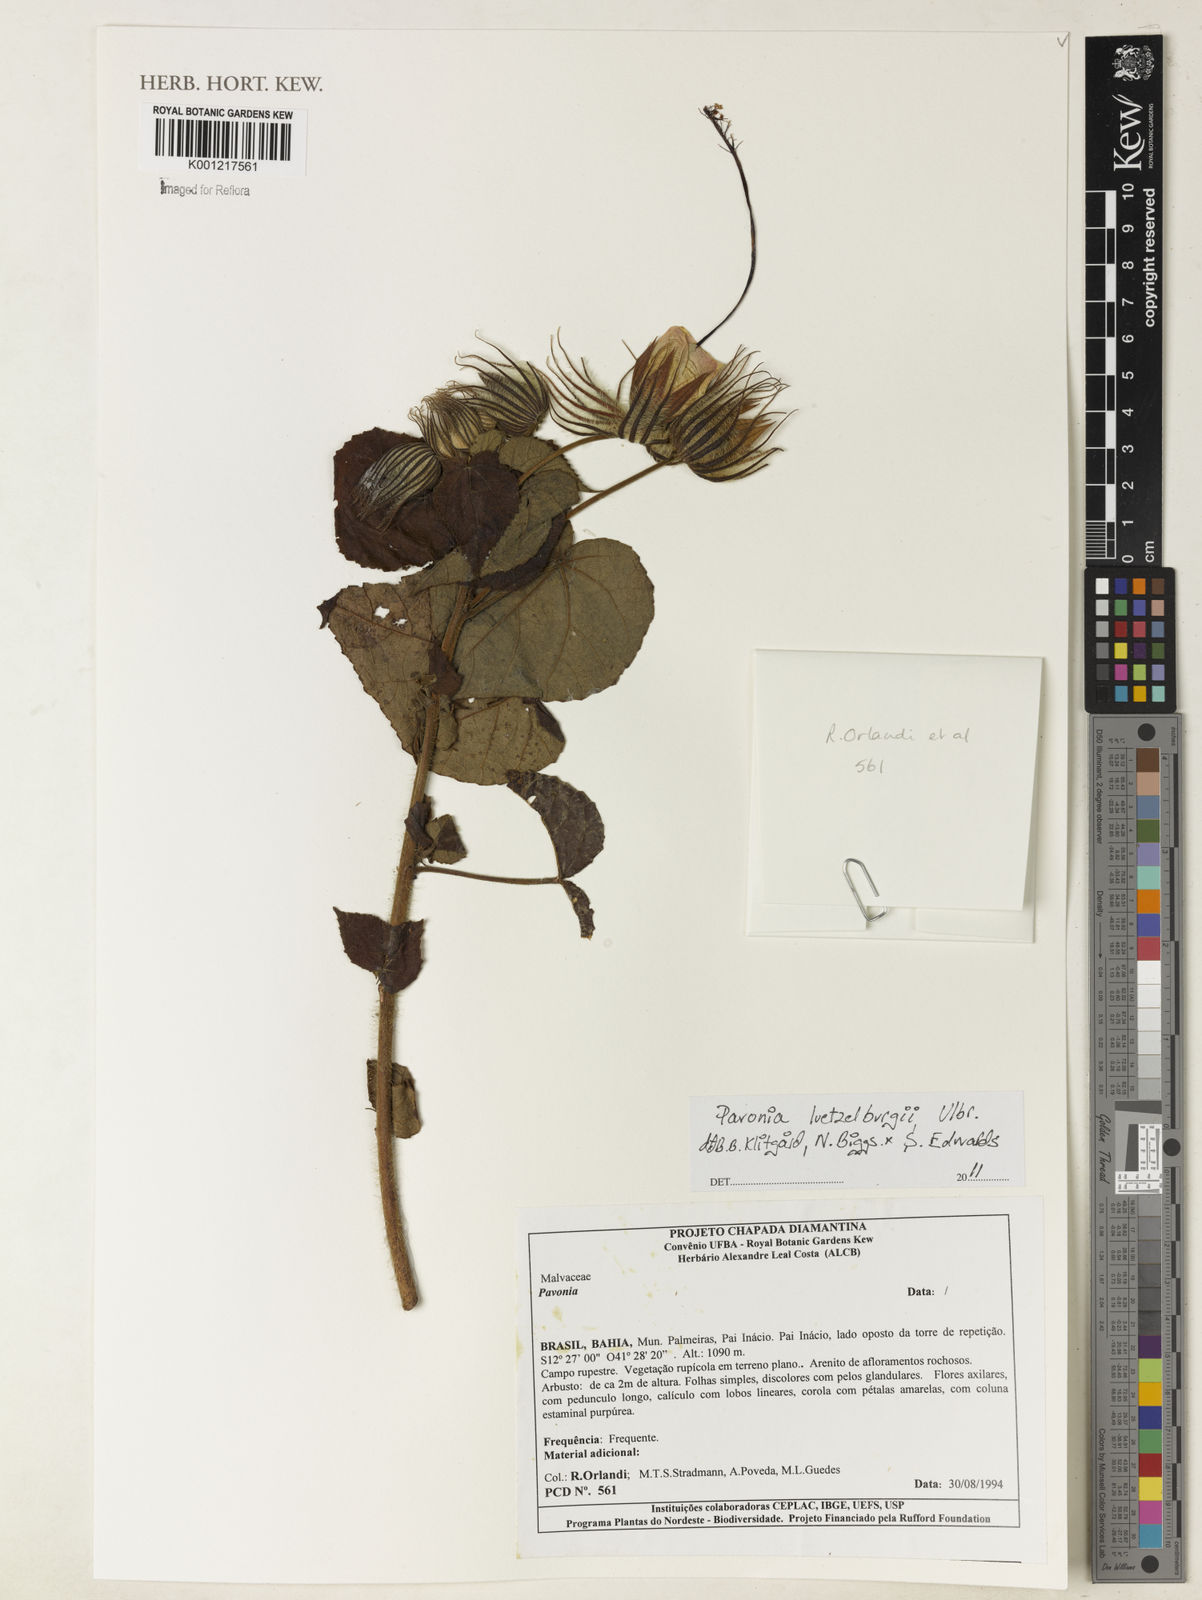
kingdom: Plantae
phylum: Tracheophyta
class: Magnoliopsida
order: Malvales
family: Malvaceae
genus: Pavonia
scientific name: Pavonia luetzelburgii
